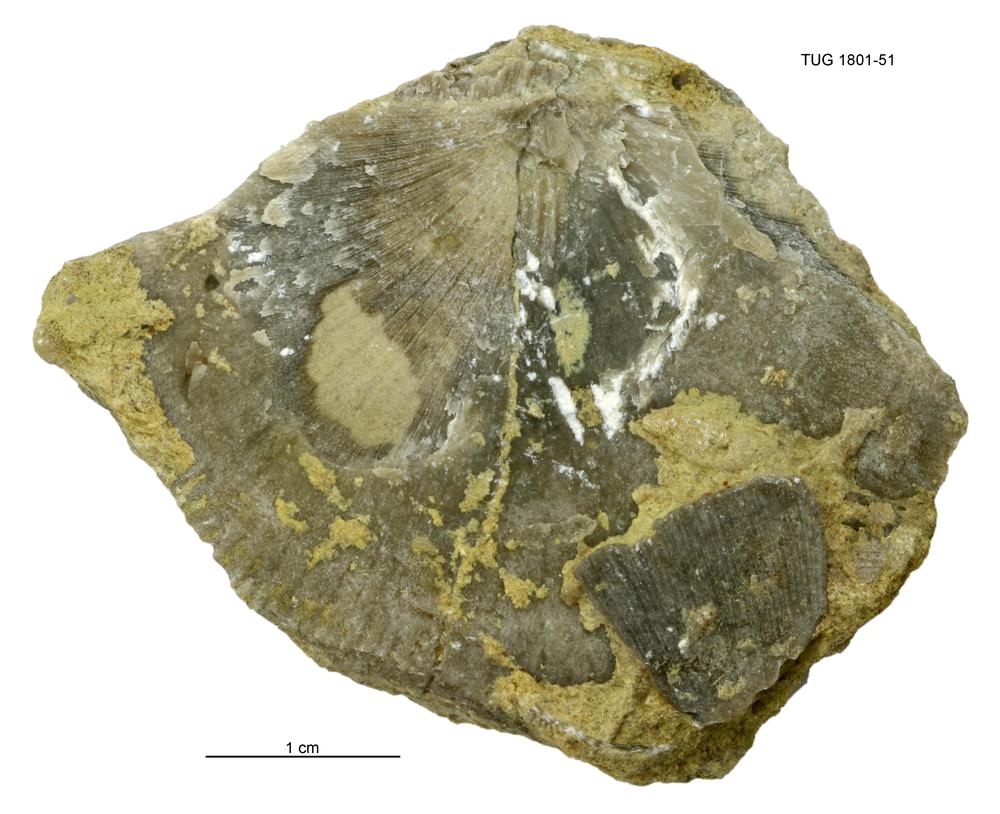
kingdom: Animalia
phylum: Brachiopoda
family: Strophomenidae
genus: Strophomena
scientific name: Strophomena
